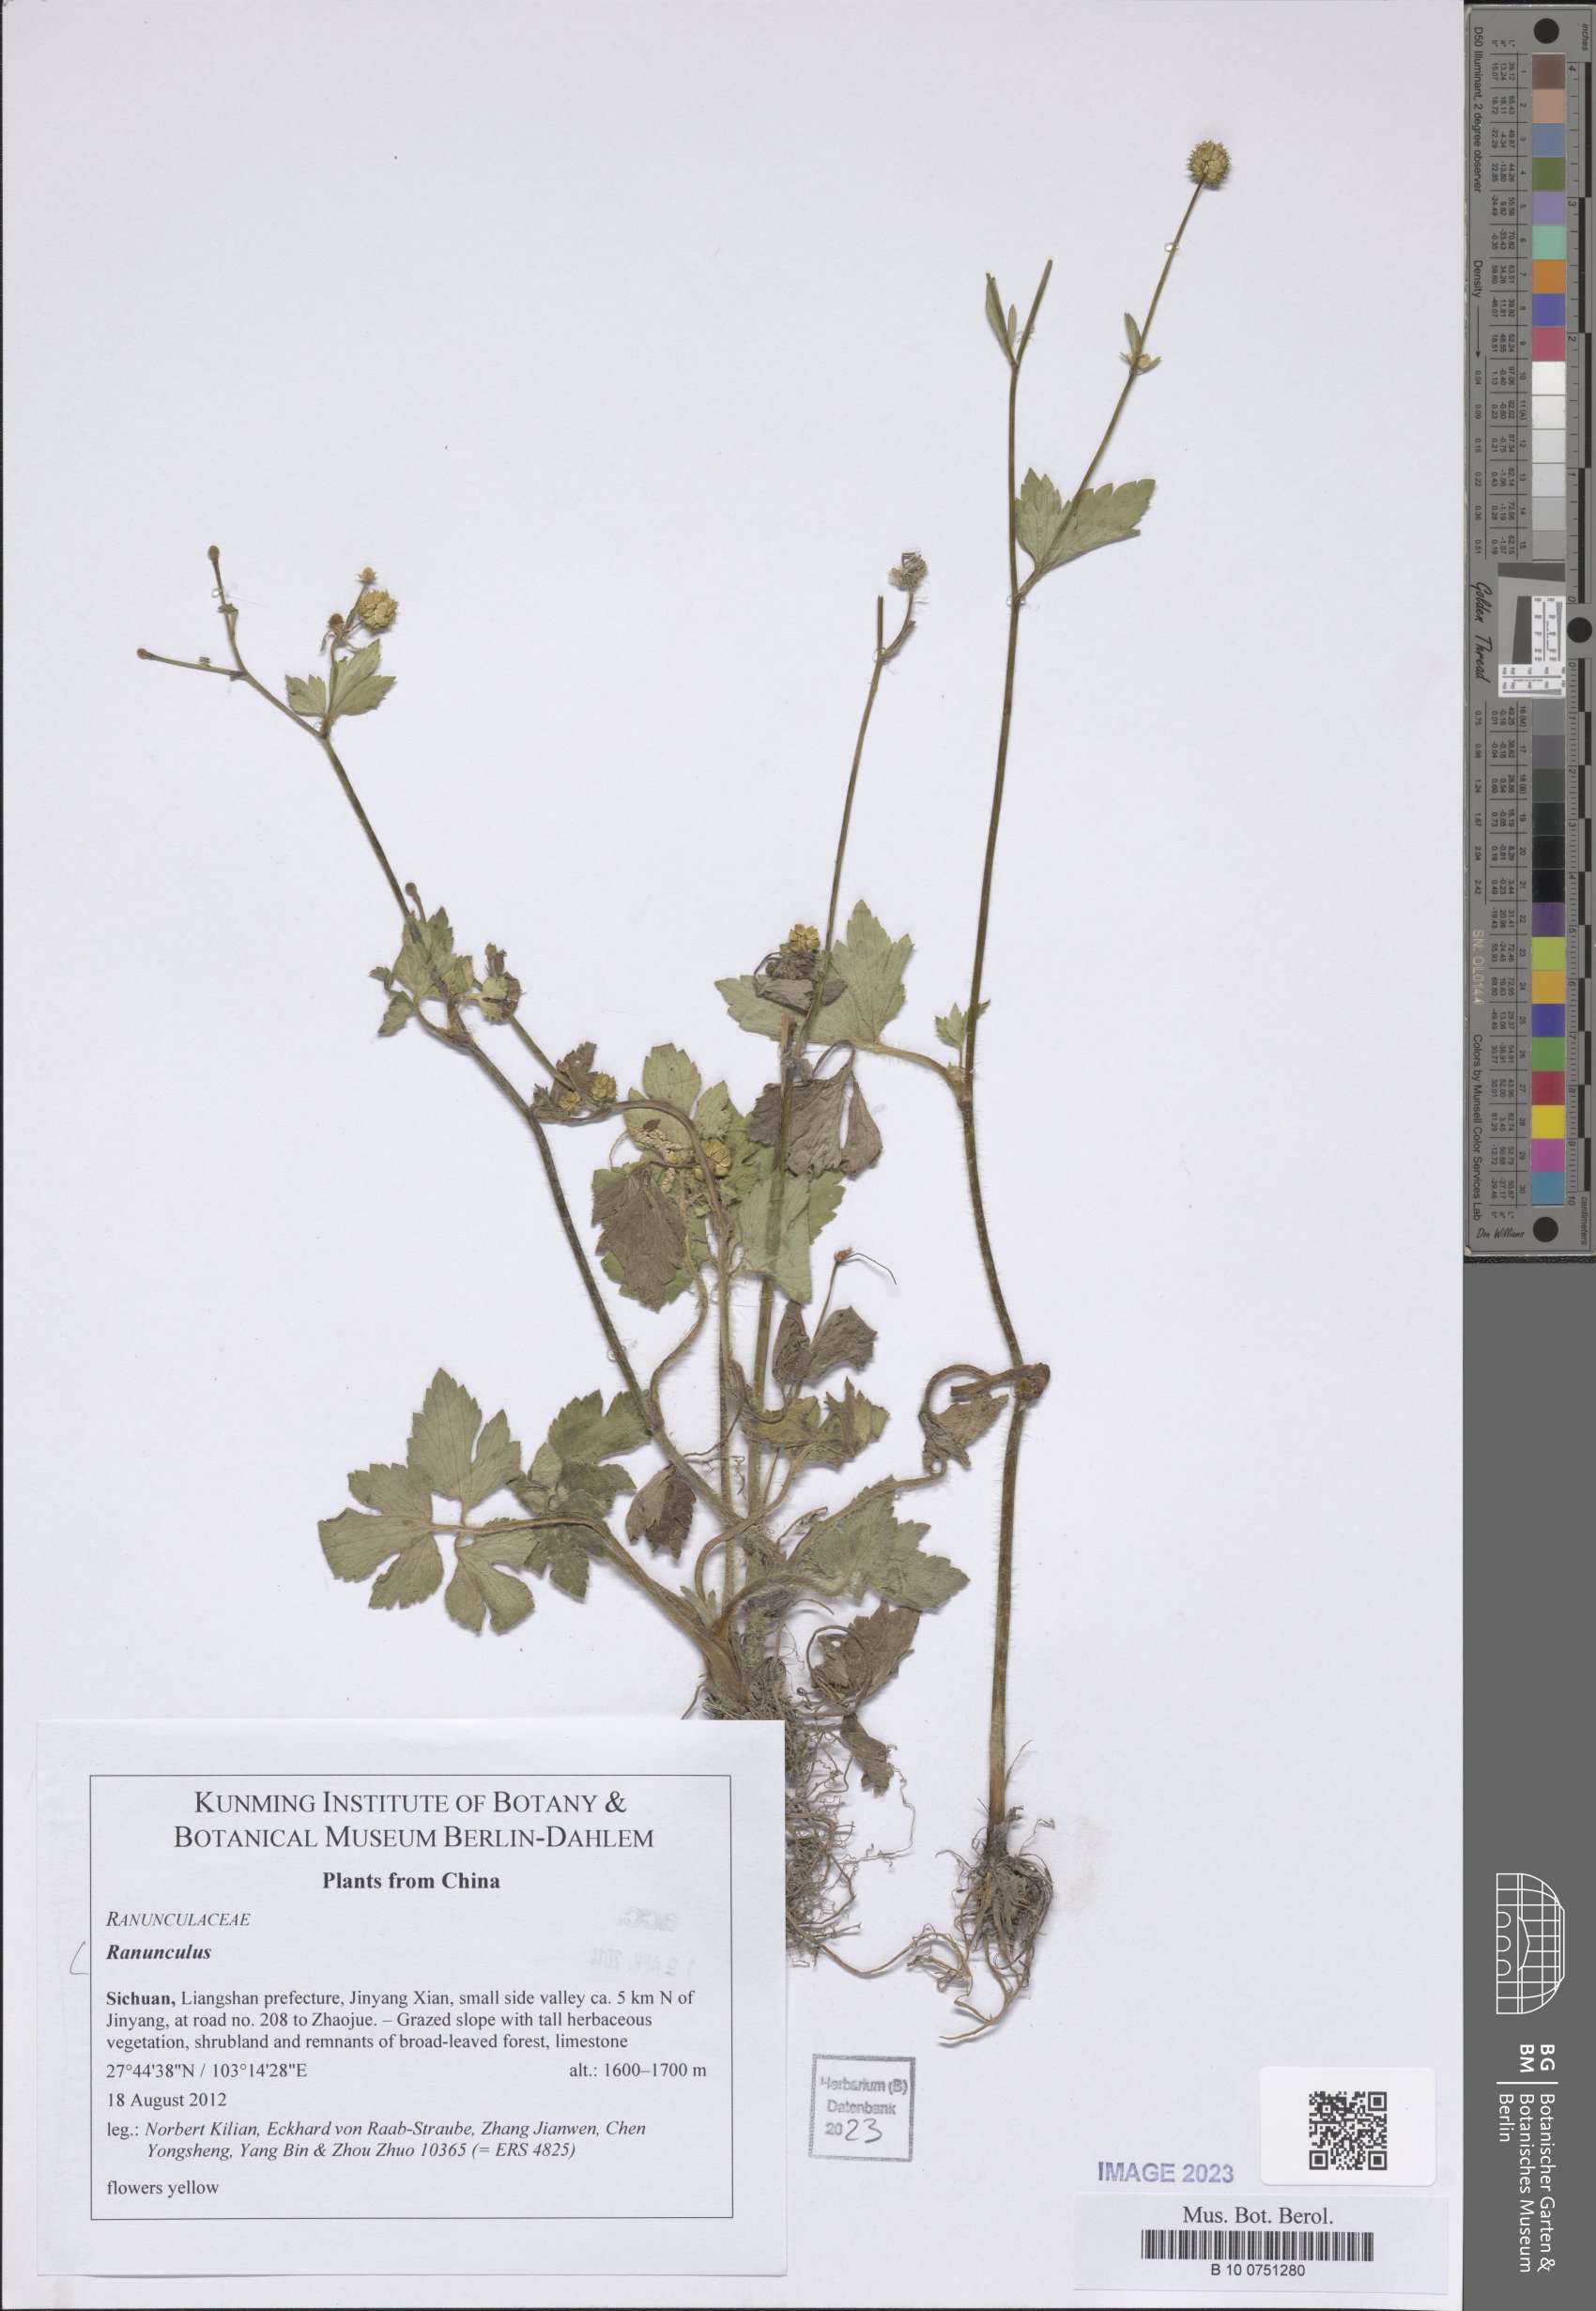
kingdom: Plantae
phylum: Tracheophyta
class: Magnoliopsida
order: Ranunculales
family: Ranunculaceae
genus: Ranunculus
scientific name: Ranunculus
